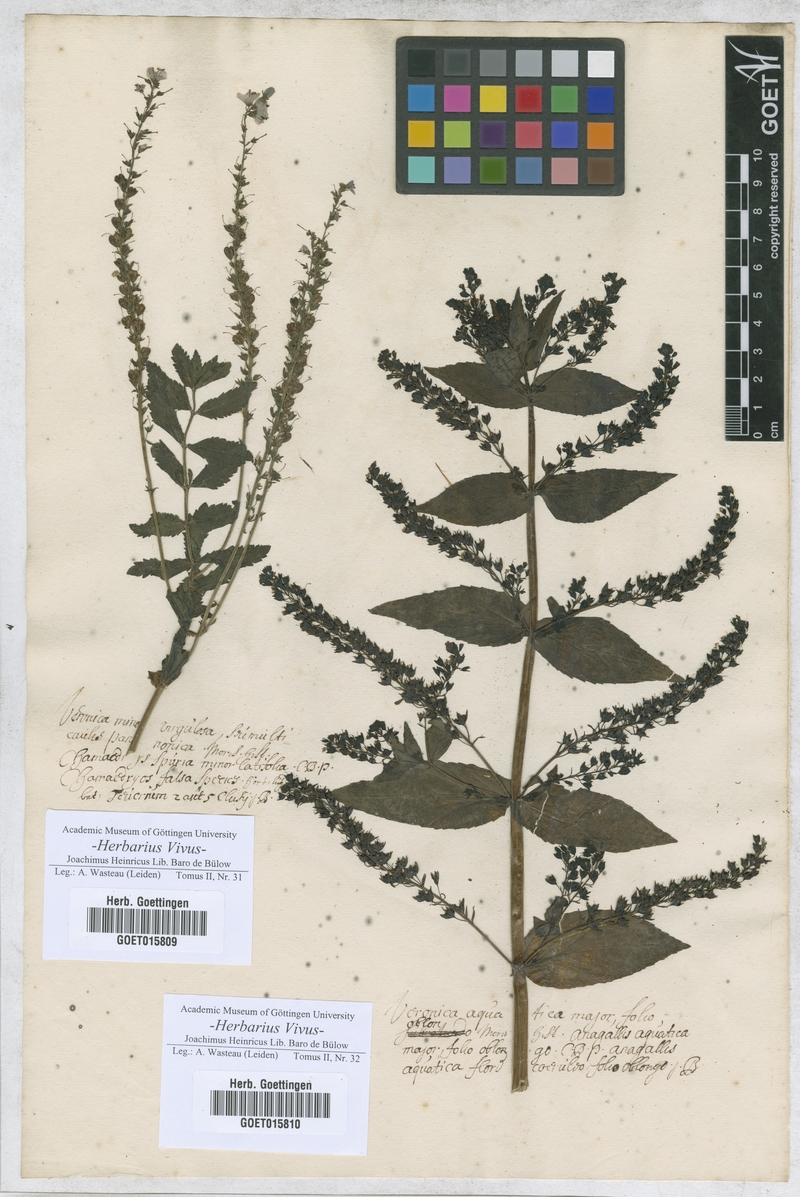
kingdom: Plantae
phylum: Tracheophyta
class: Magnoliopsida
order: Lamiales
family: Plantaginaceae
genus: Veronica
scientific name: Veronica
